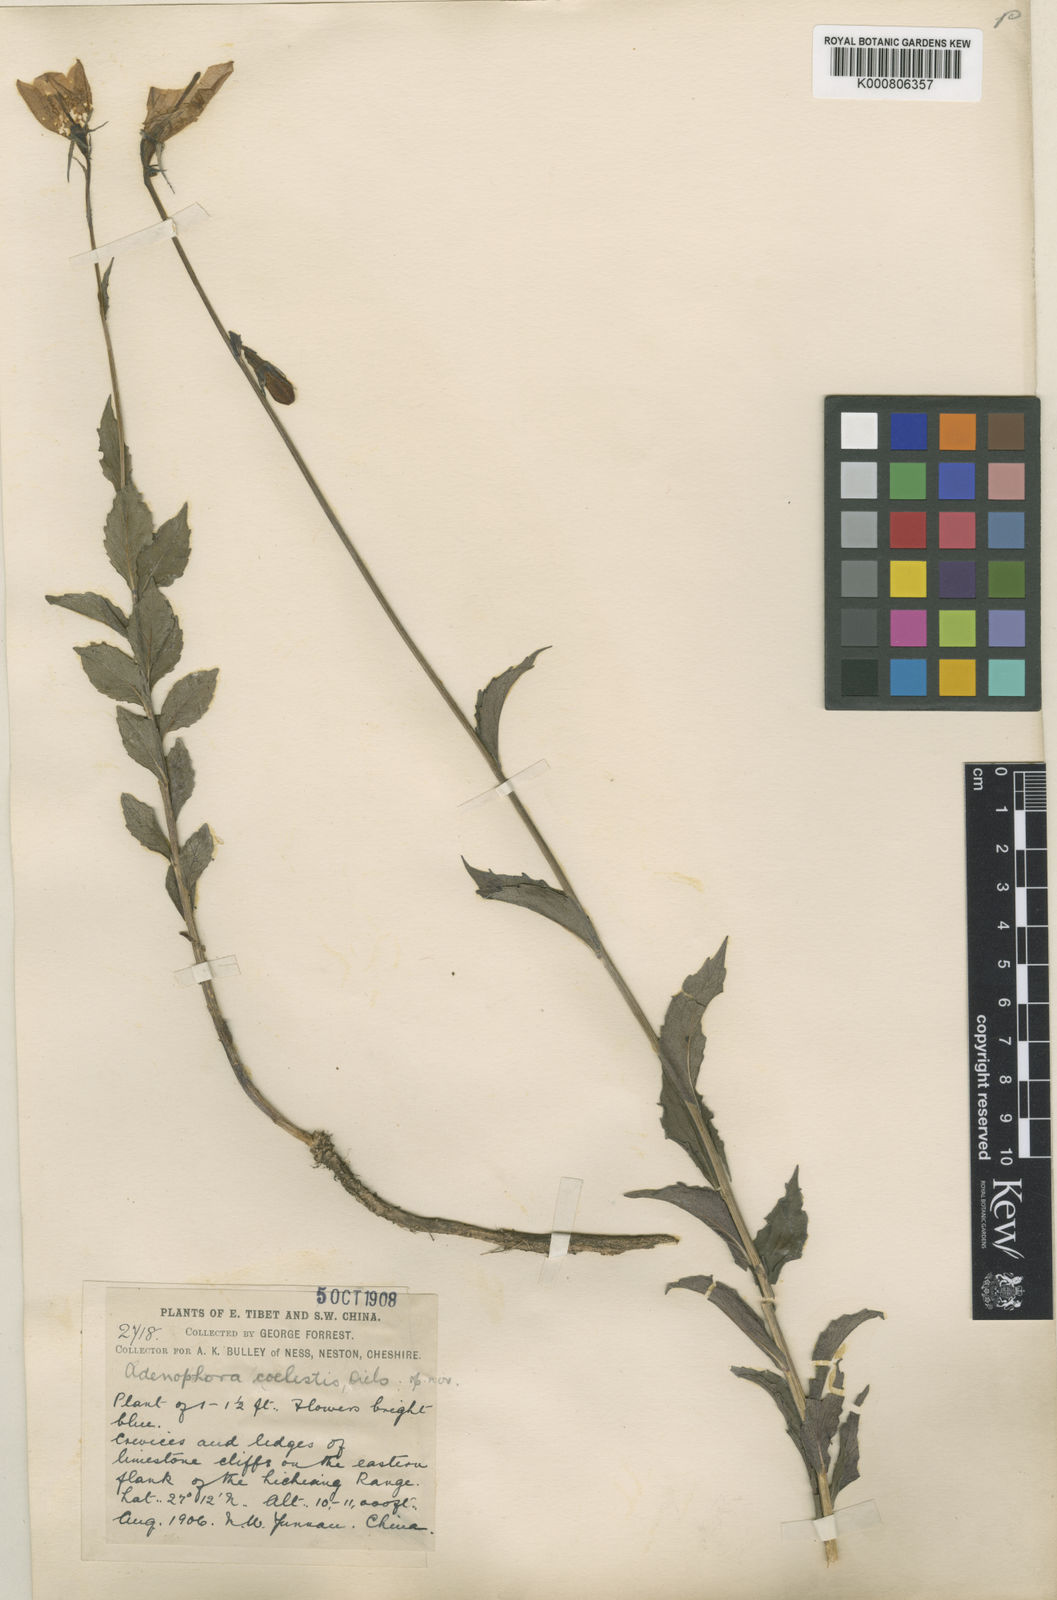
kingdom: Plantae
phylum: Tracheophyta
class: Magnoliopsida
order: Asterales
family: Campanulaceae
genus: Adenophora
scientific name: Adenophora coelestis
